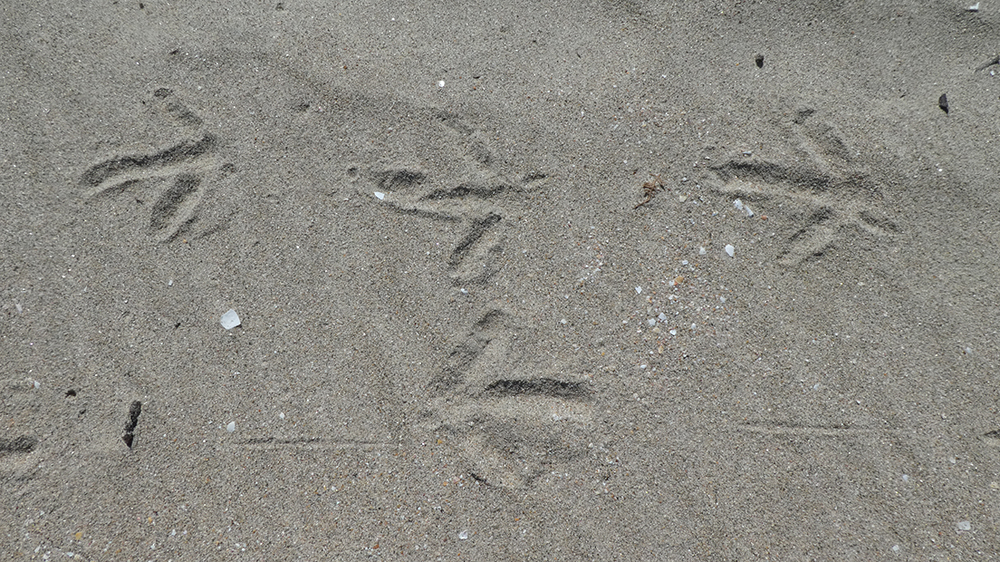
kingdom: Animalia
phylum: Chordata
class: Aves
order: Apterygiformes
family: Apterygidae
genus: Apteryx
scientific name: Apteryx australis
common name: Southern brown kiwi
